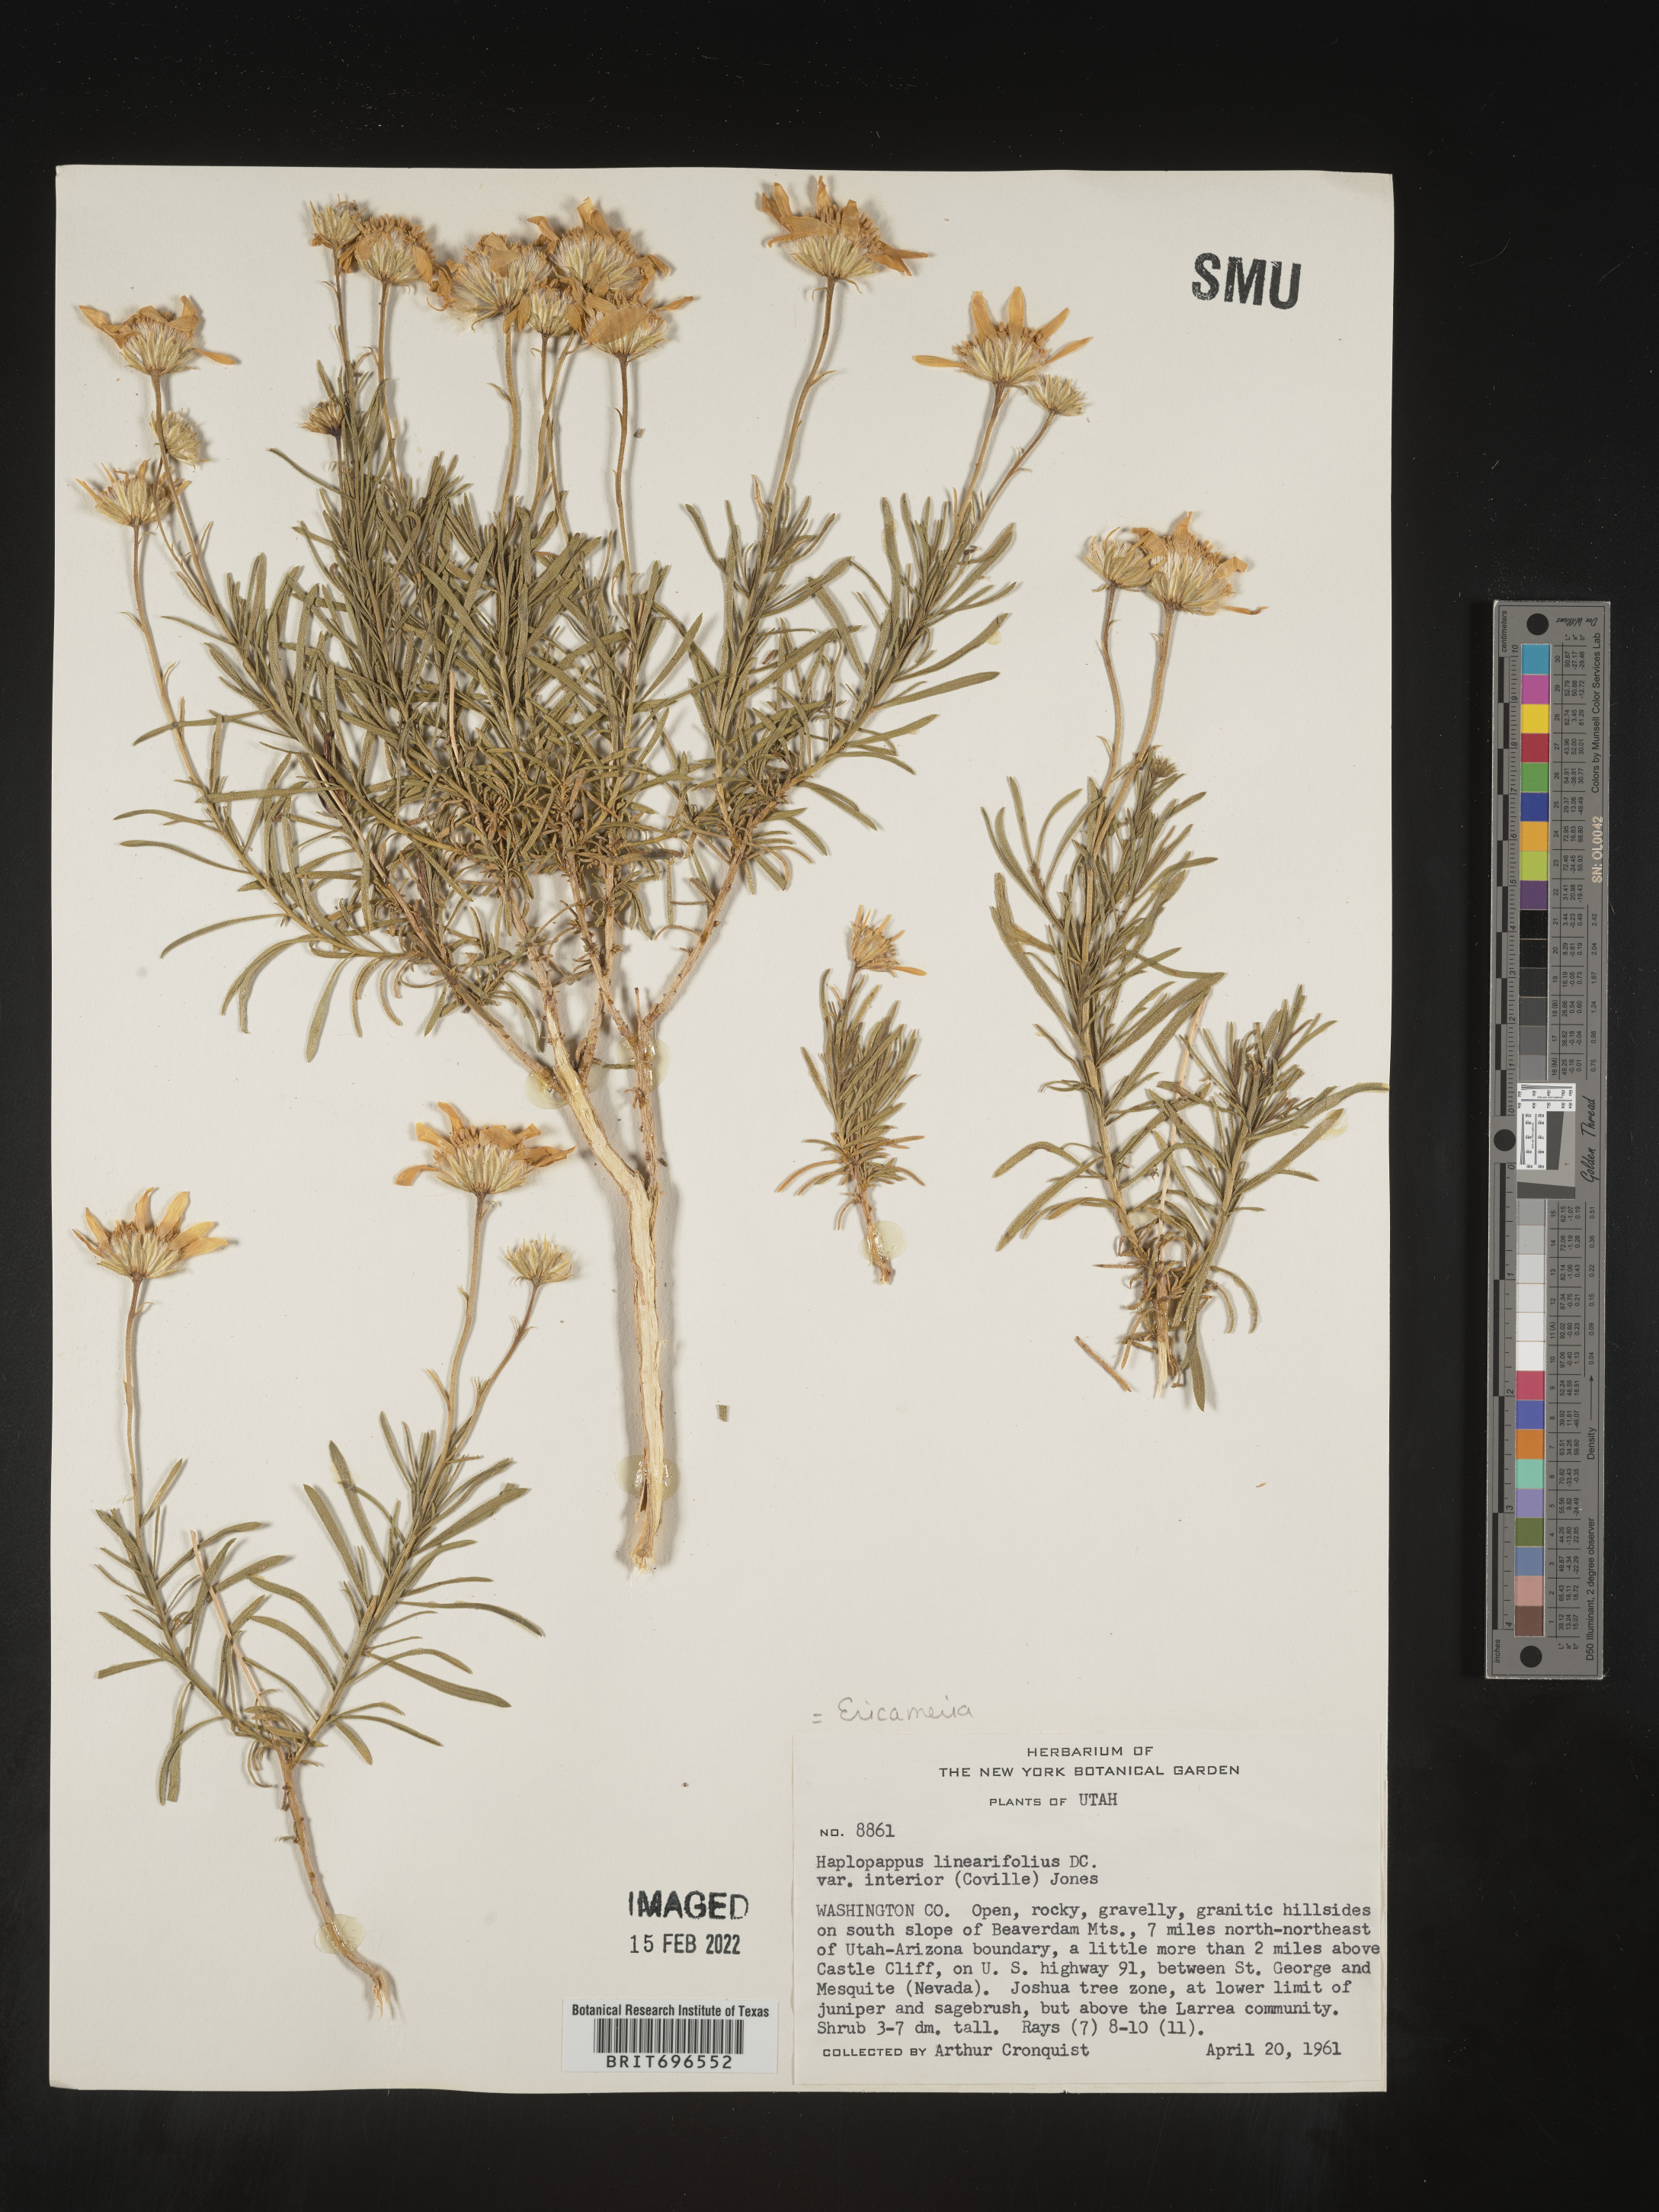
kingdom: Plantae
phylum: Tracheophyta
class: Magnoliopsida
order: Asterales
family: Asteraceae
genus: Ericameria
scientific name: Ericameria linearifolia
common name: Interior goldenbush
